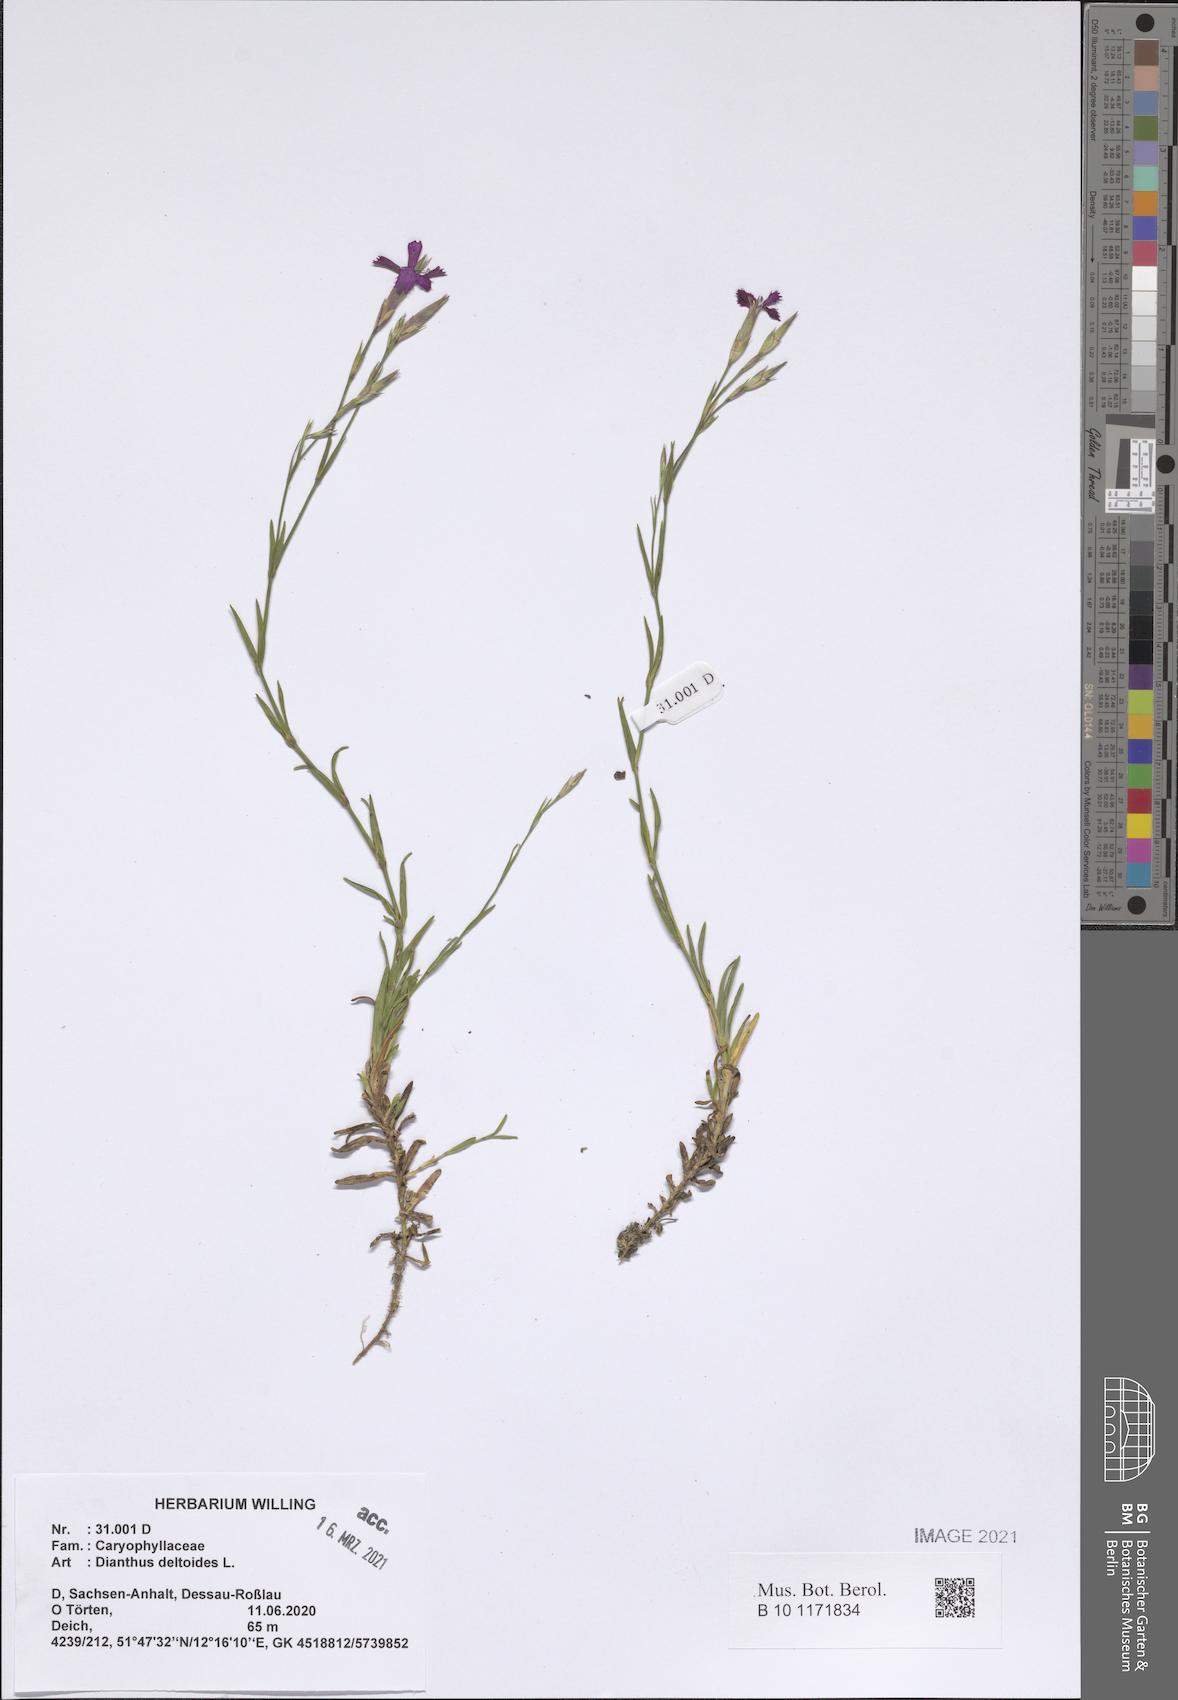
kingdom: Plantae
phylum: Tracheophyta
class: Magnoliopsida
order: Caryophyllales
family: Caryophyllaceae
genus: Dianthus
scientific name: Dianthus deltoides
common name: Maiden pink
